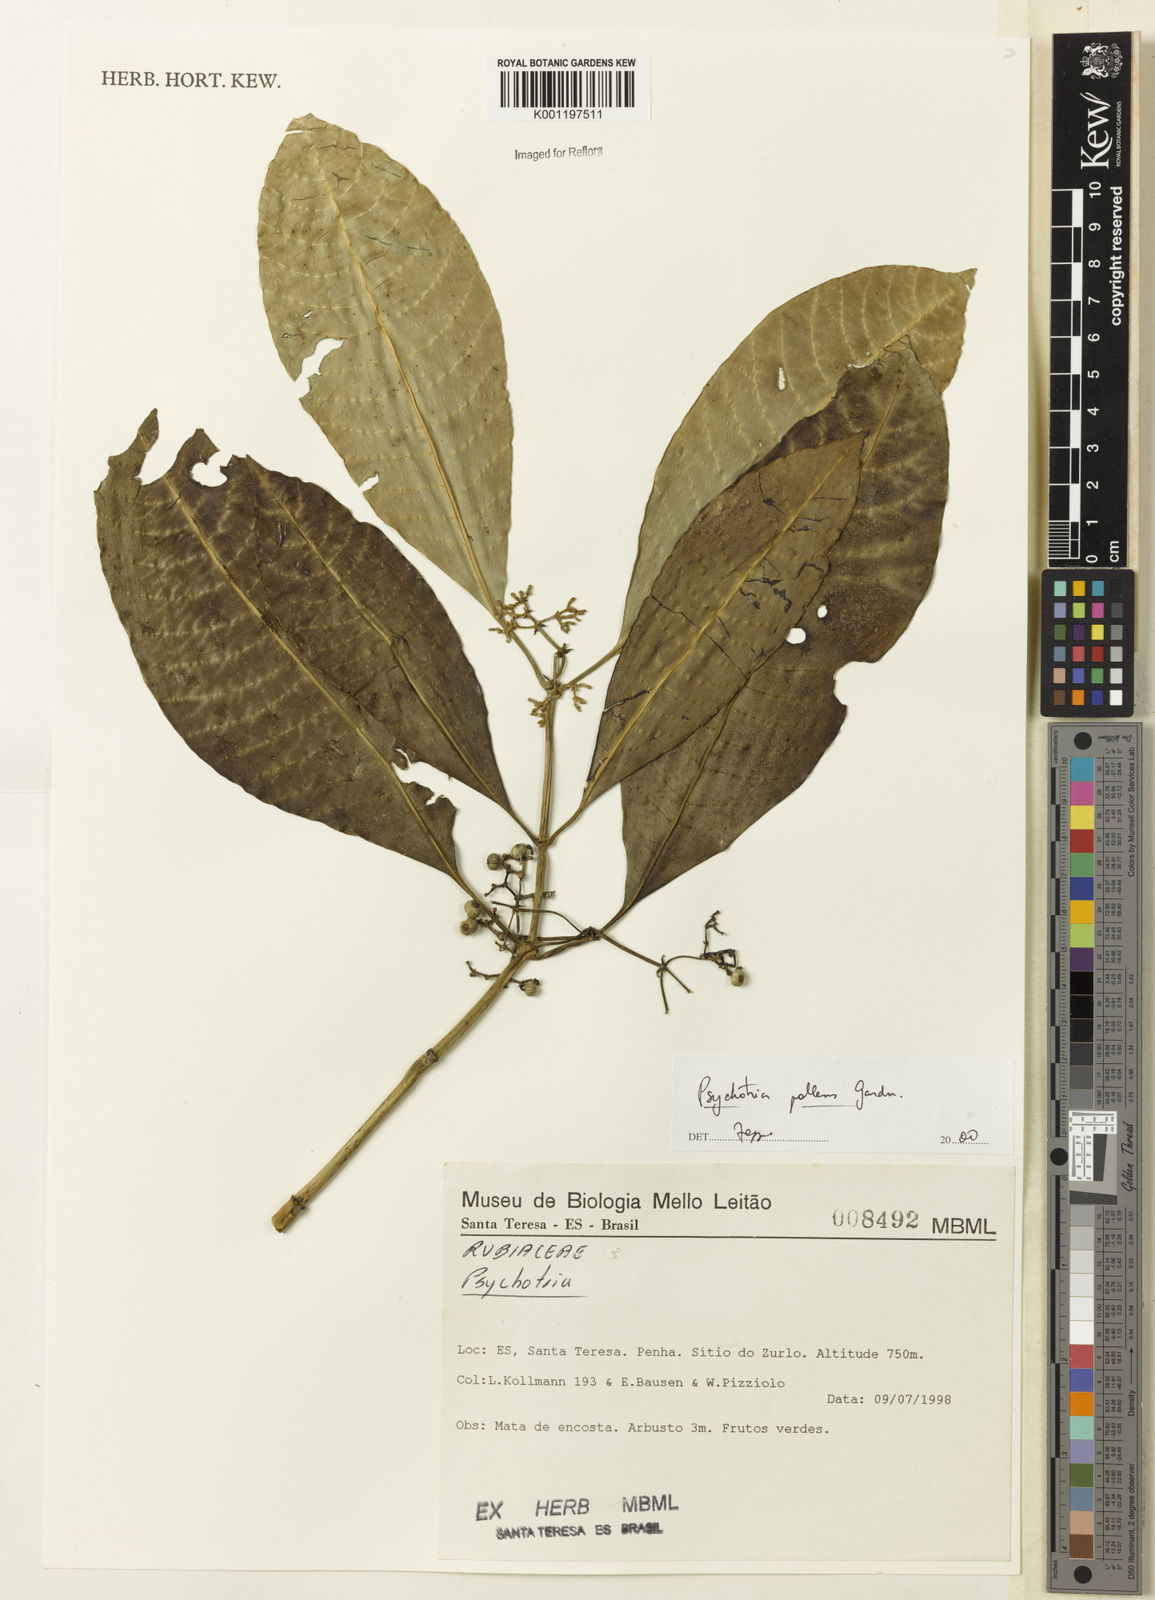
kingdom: Plantae
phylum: Tracheophyta
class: Magnoliopsida
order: Gentianales
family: Rubiaceae
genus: Psychotria
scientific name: Psychotria pallens
